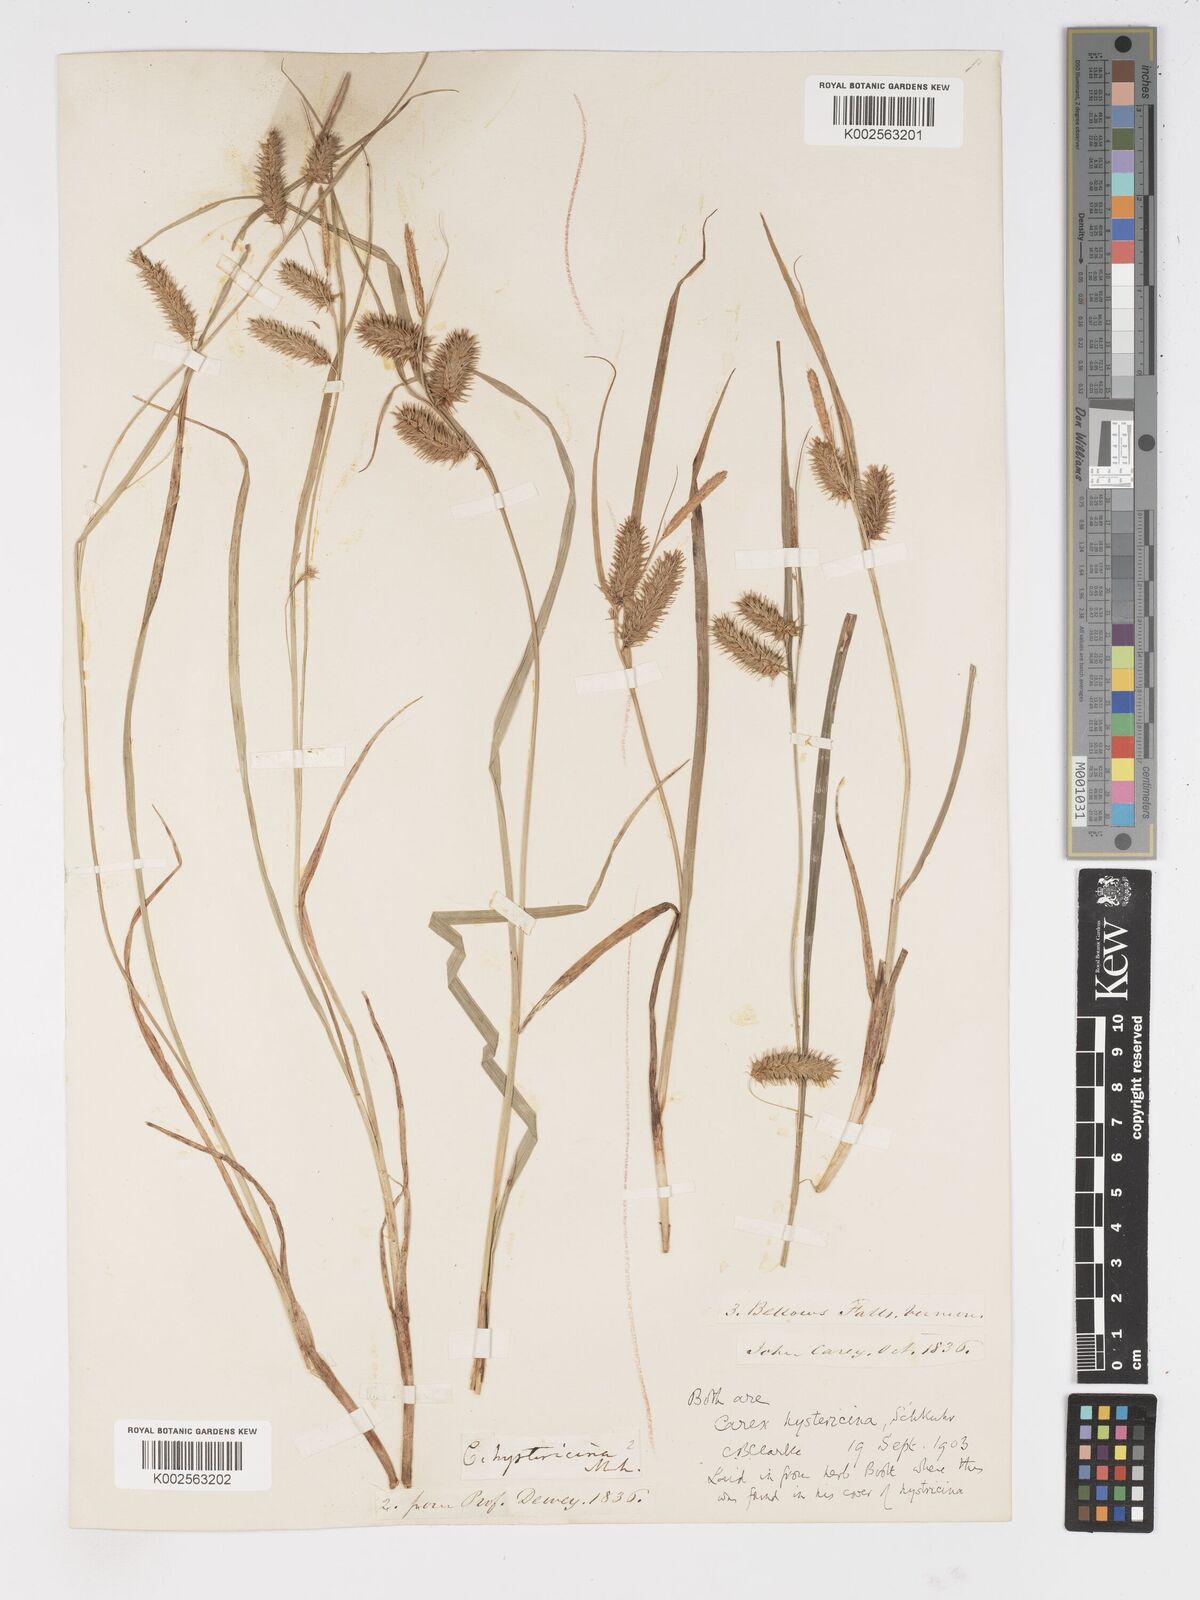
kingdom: Plantae
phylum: Tracheophyta
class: Liliopsida
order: Poales
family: Cyperaceae
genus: Carex
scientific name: Carex hystericina
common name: Bottlebrush sedge
